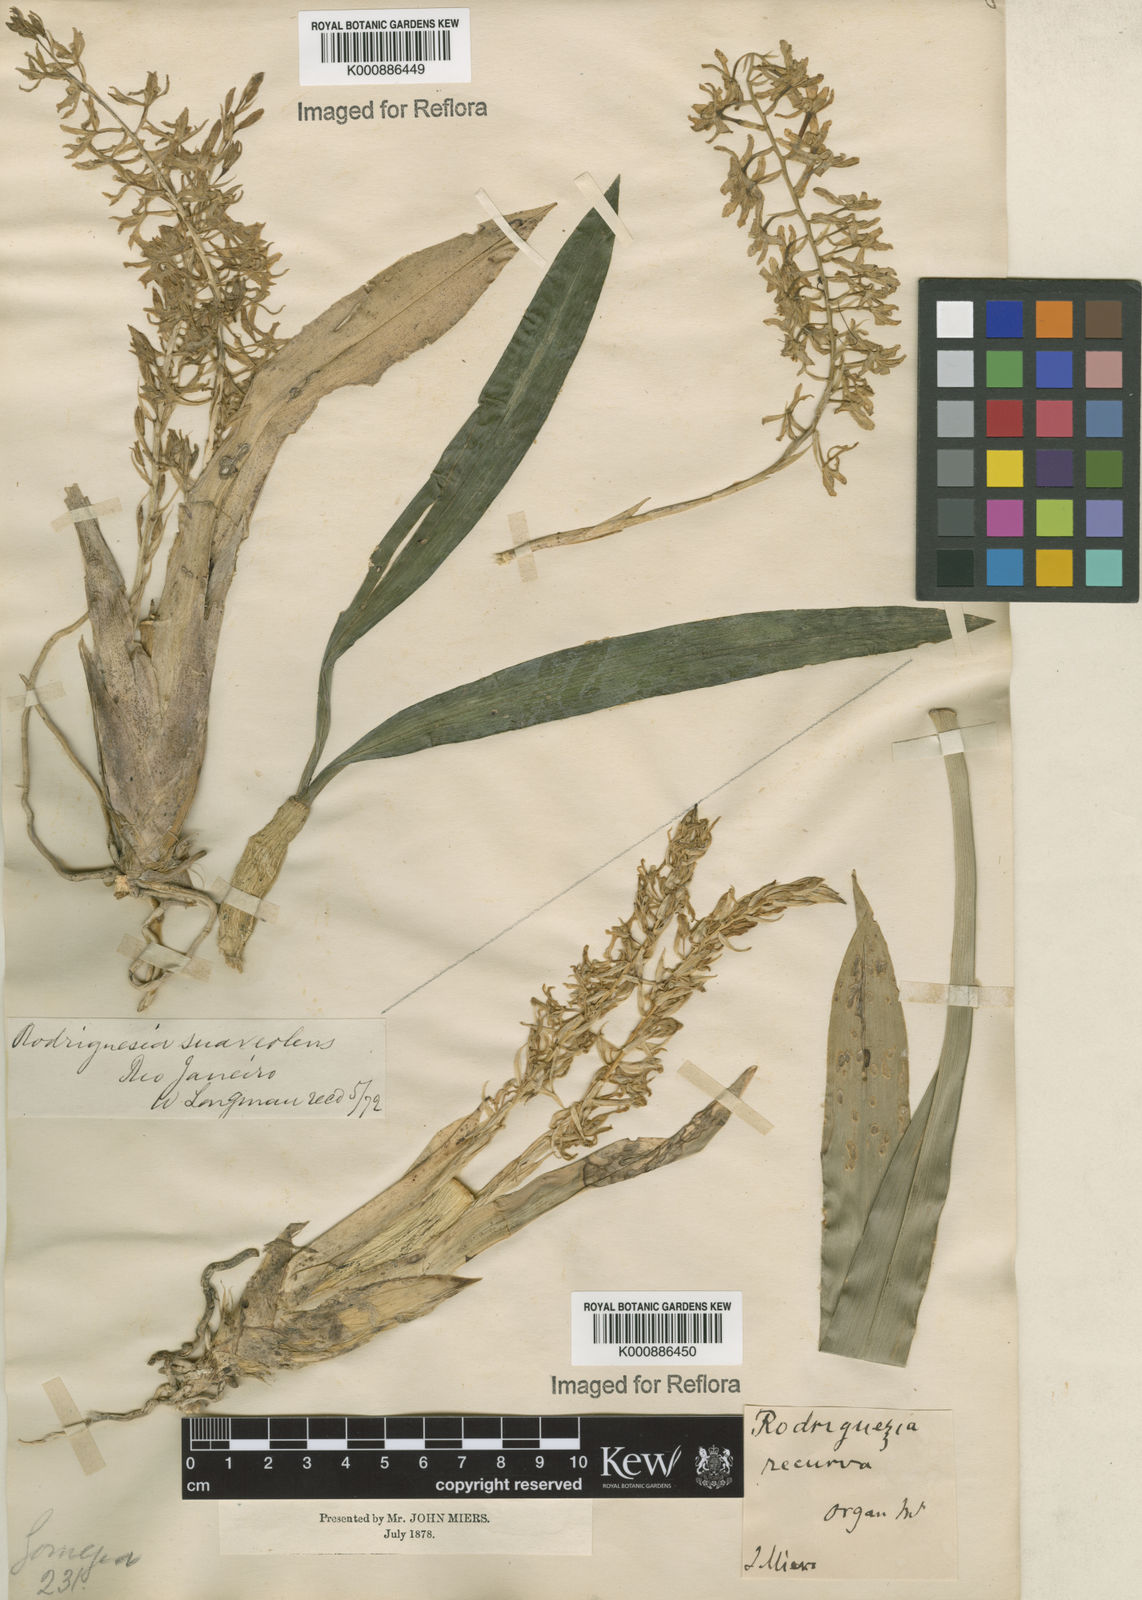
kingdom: Plantae
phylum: Tracheophyta
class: Liliopsida
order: Asparagales
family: Orchidaceae
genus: Gomesa
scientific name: Gomesa recurva
